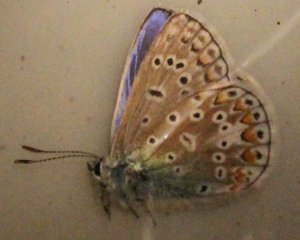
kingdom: Animalia
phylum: Arthropoda
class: Insecta
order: Lepidoptera
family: Lycaenidae
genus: Polyommatus
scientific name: Polyommatus icarus
